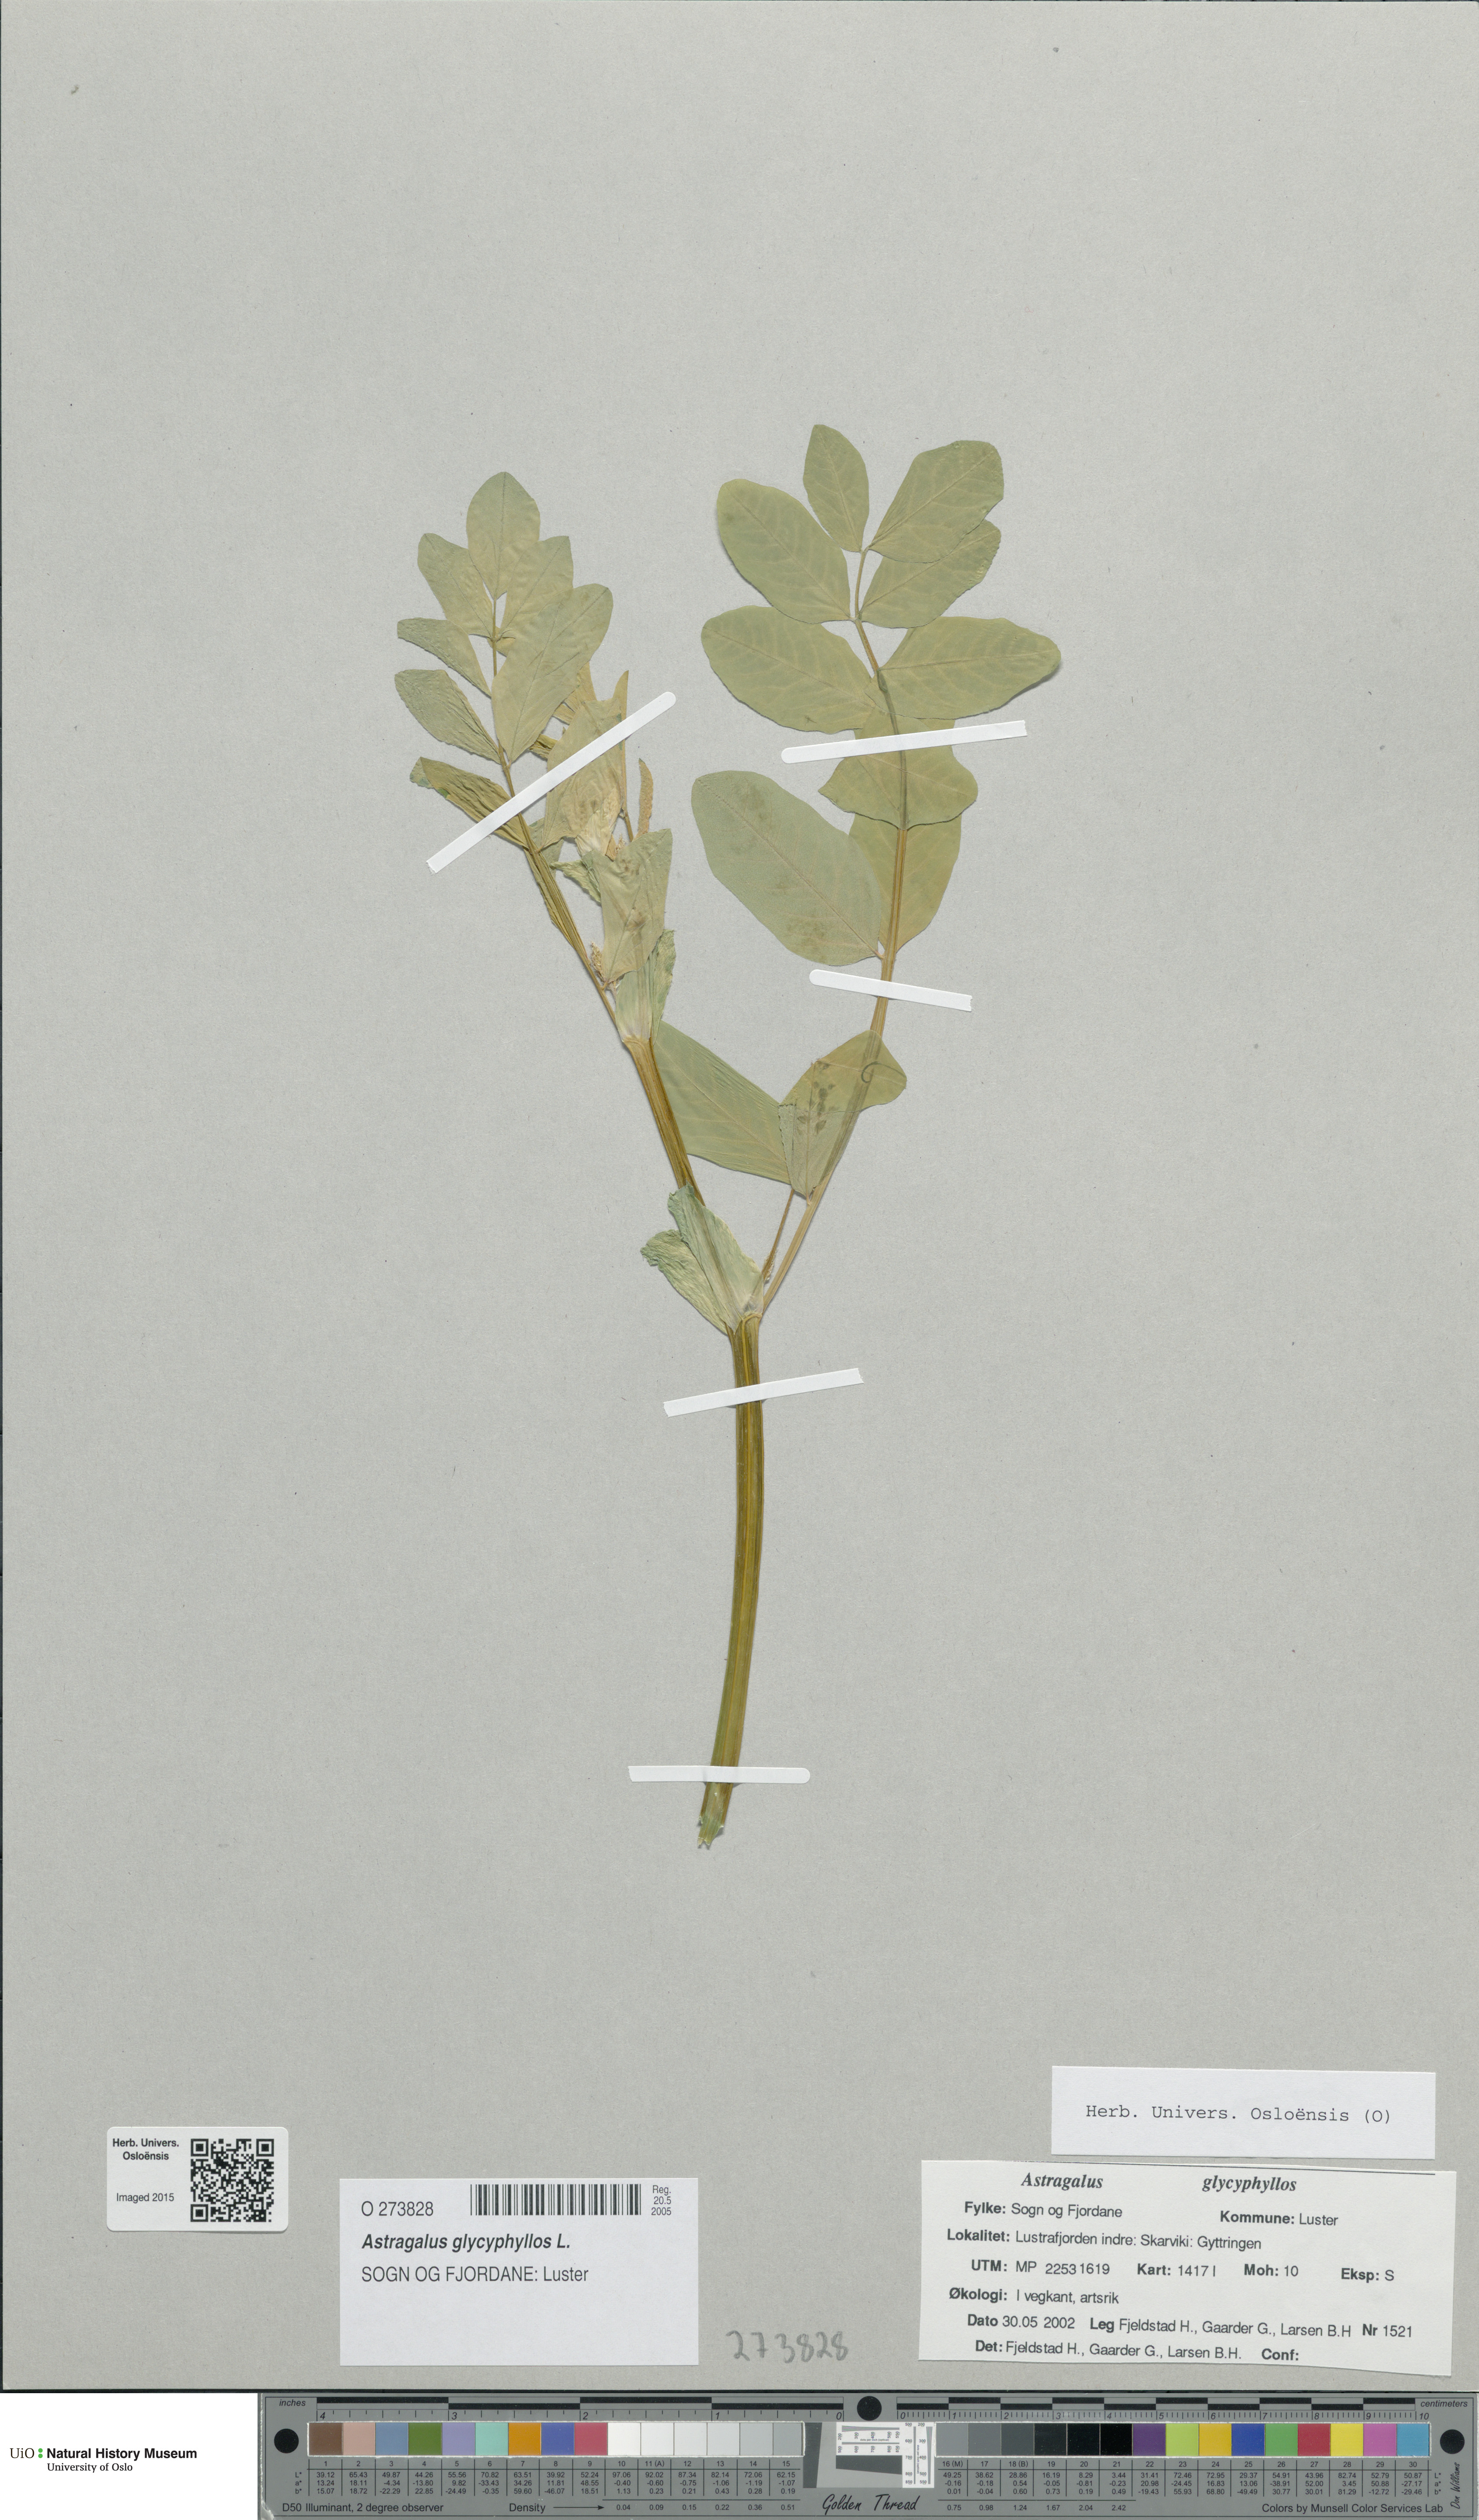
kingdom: Plantae
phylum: Tracheophyta
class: Magnoliopsida
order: Fabales
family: Fabaceae
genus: Astragalus
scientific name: Astragalus glycyphyllos
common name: Wild liquorice
